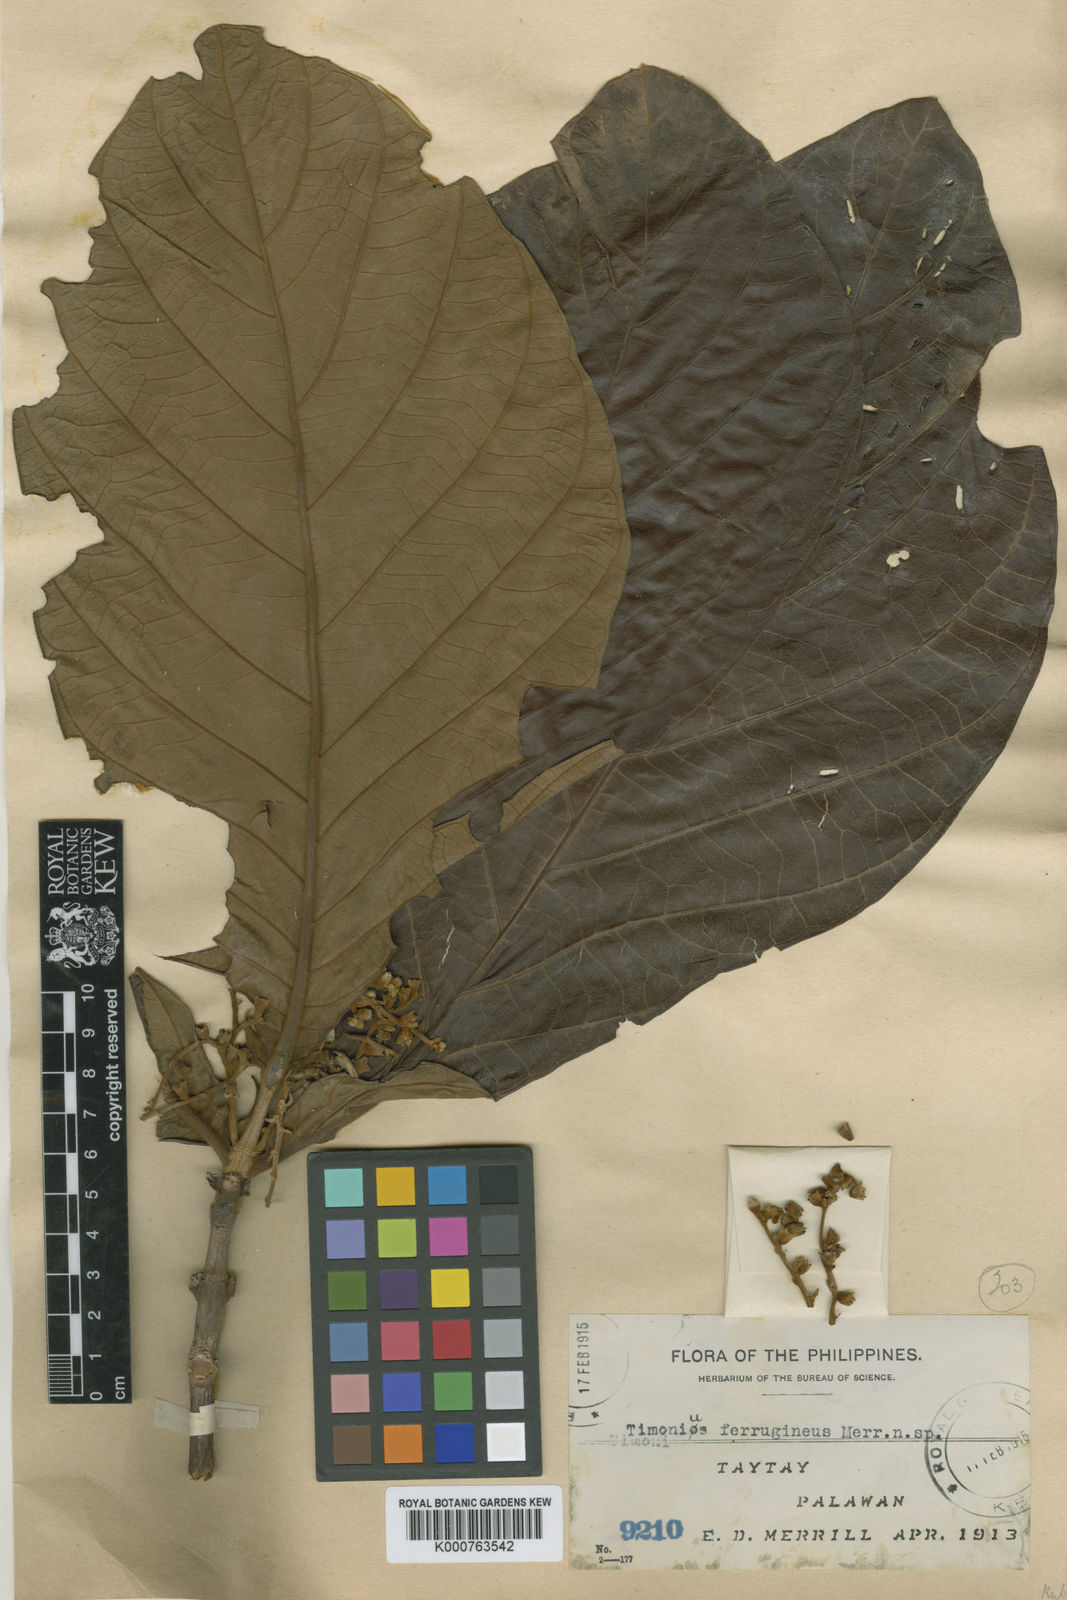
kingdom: Plantae
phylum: Tracheophyta
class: Magnoliopsida
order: Gentianales
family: Rubiaceae
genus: Timonius
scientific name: Timonius ferrugineus
